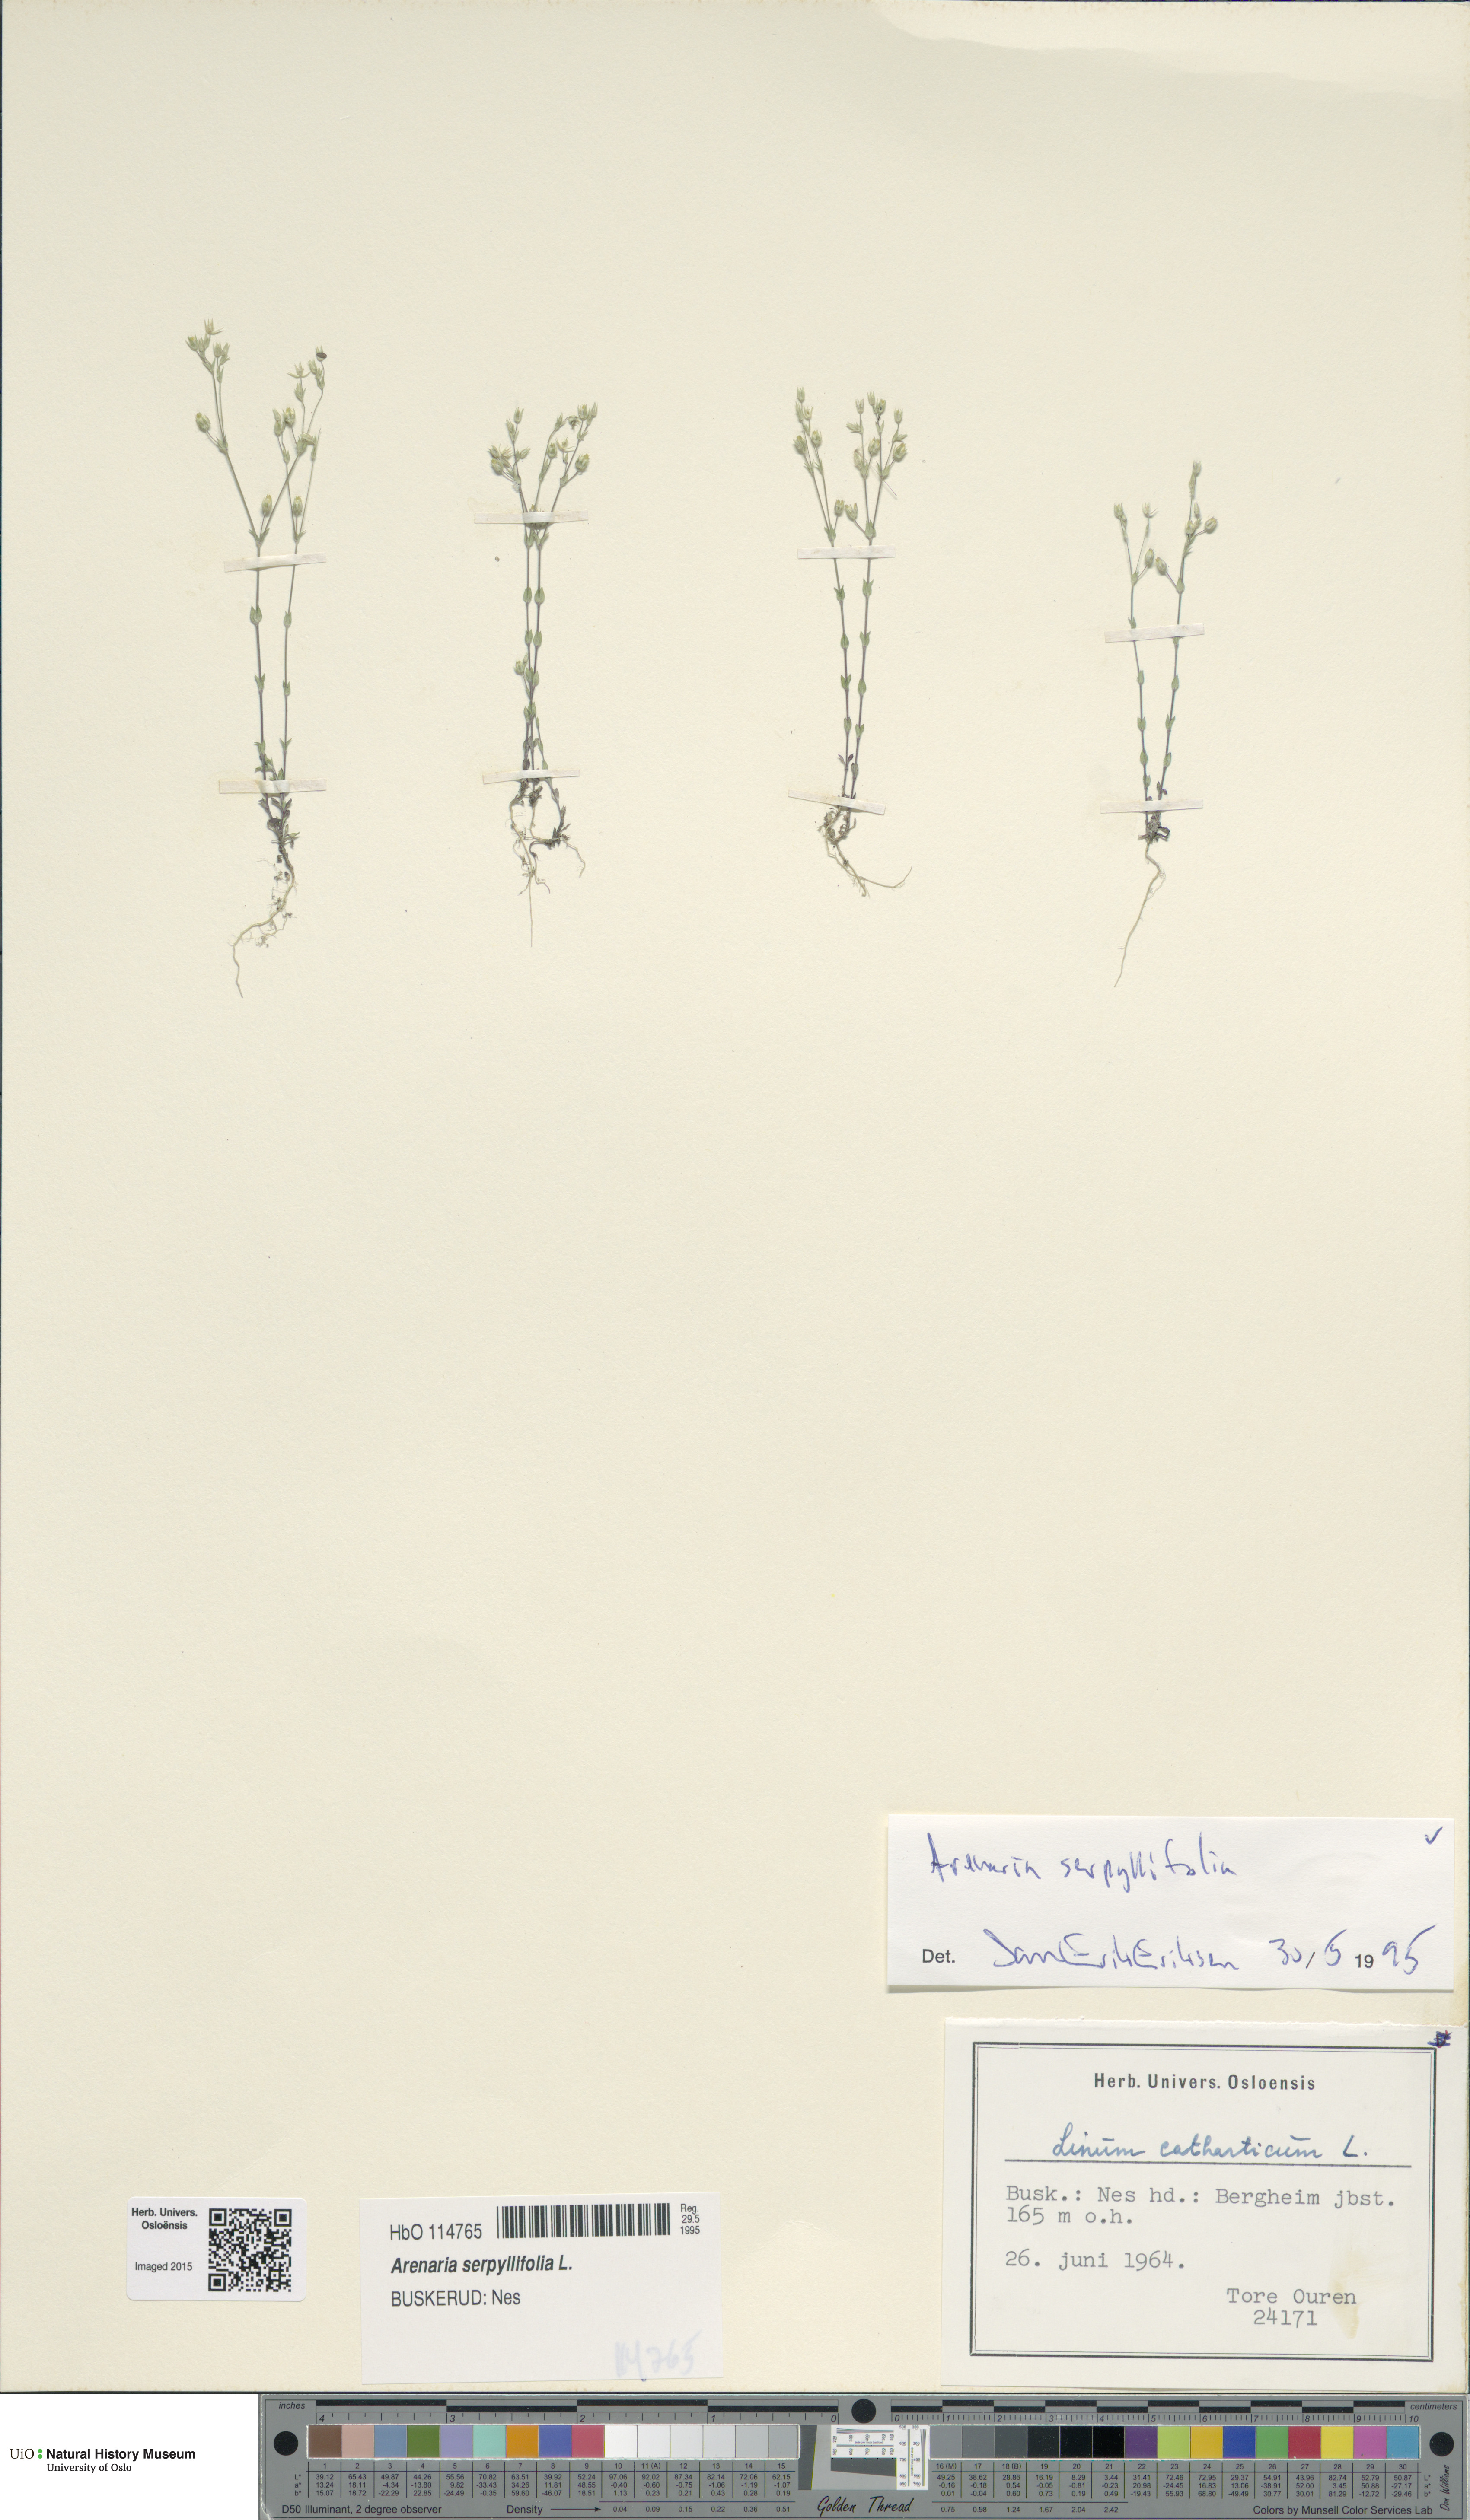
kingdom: Plantae
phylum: Tracheophyta
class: Magnoliopsida
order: Caryophyllales
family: Caryophyllaceae
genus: Arenaria
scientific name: Arenaria serpyllifolia
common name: Thyme-leaved sandwort
